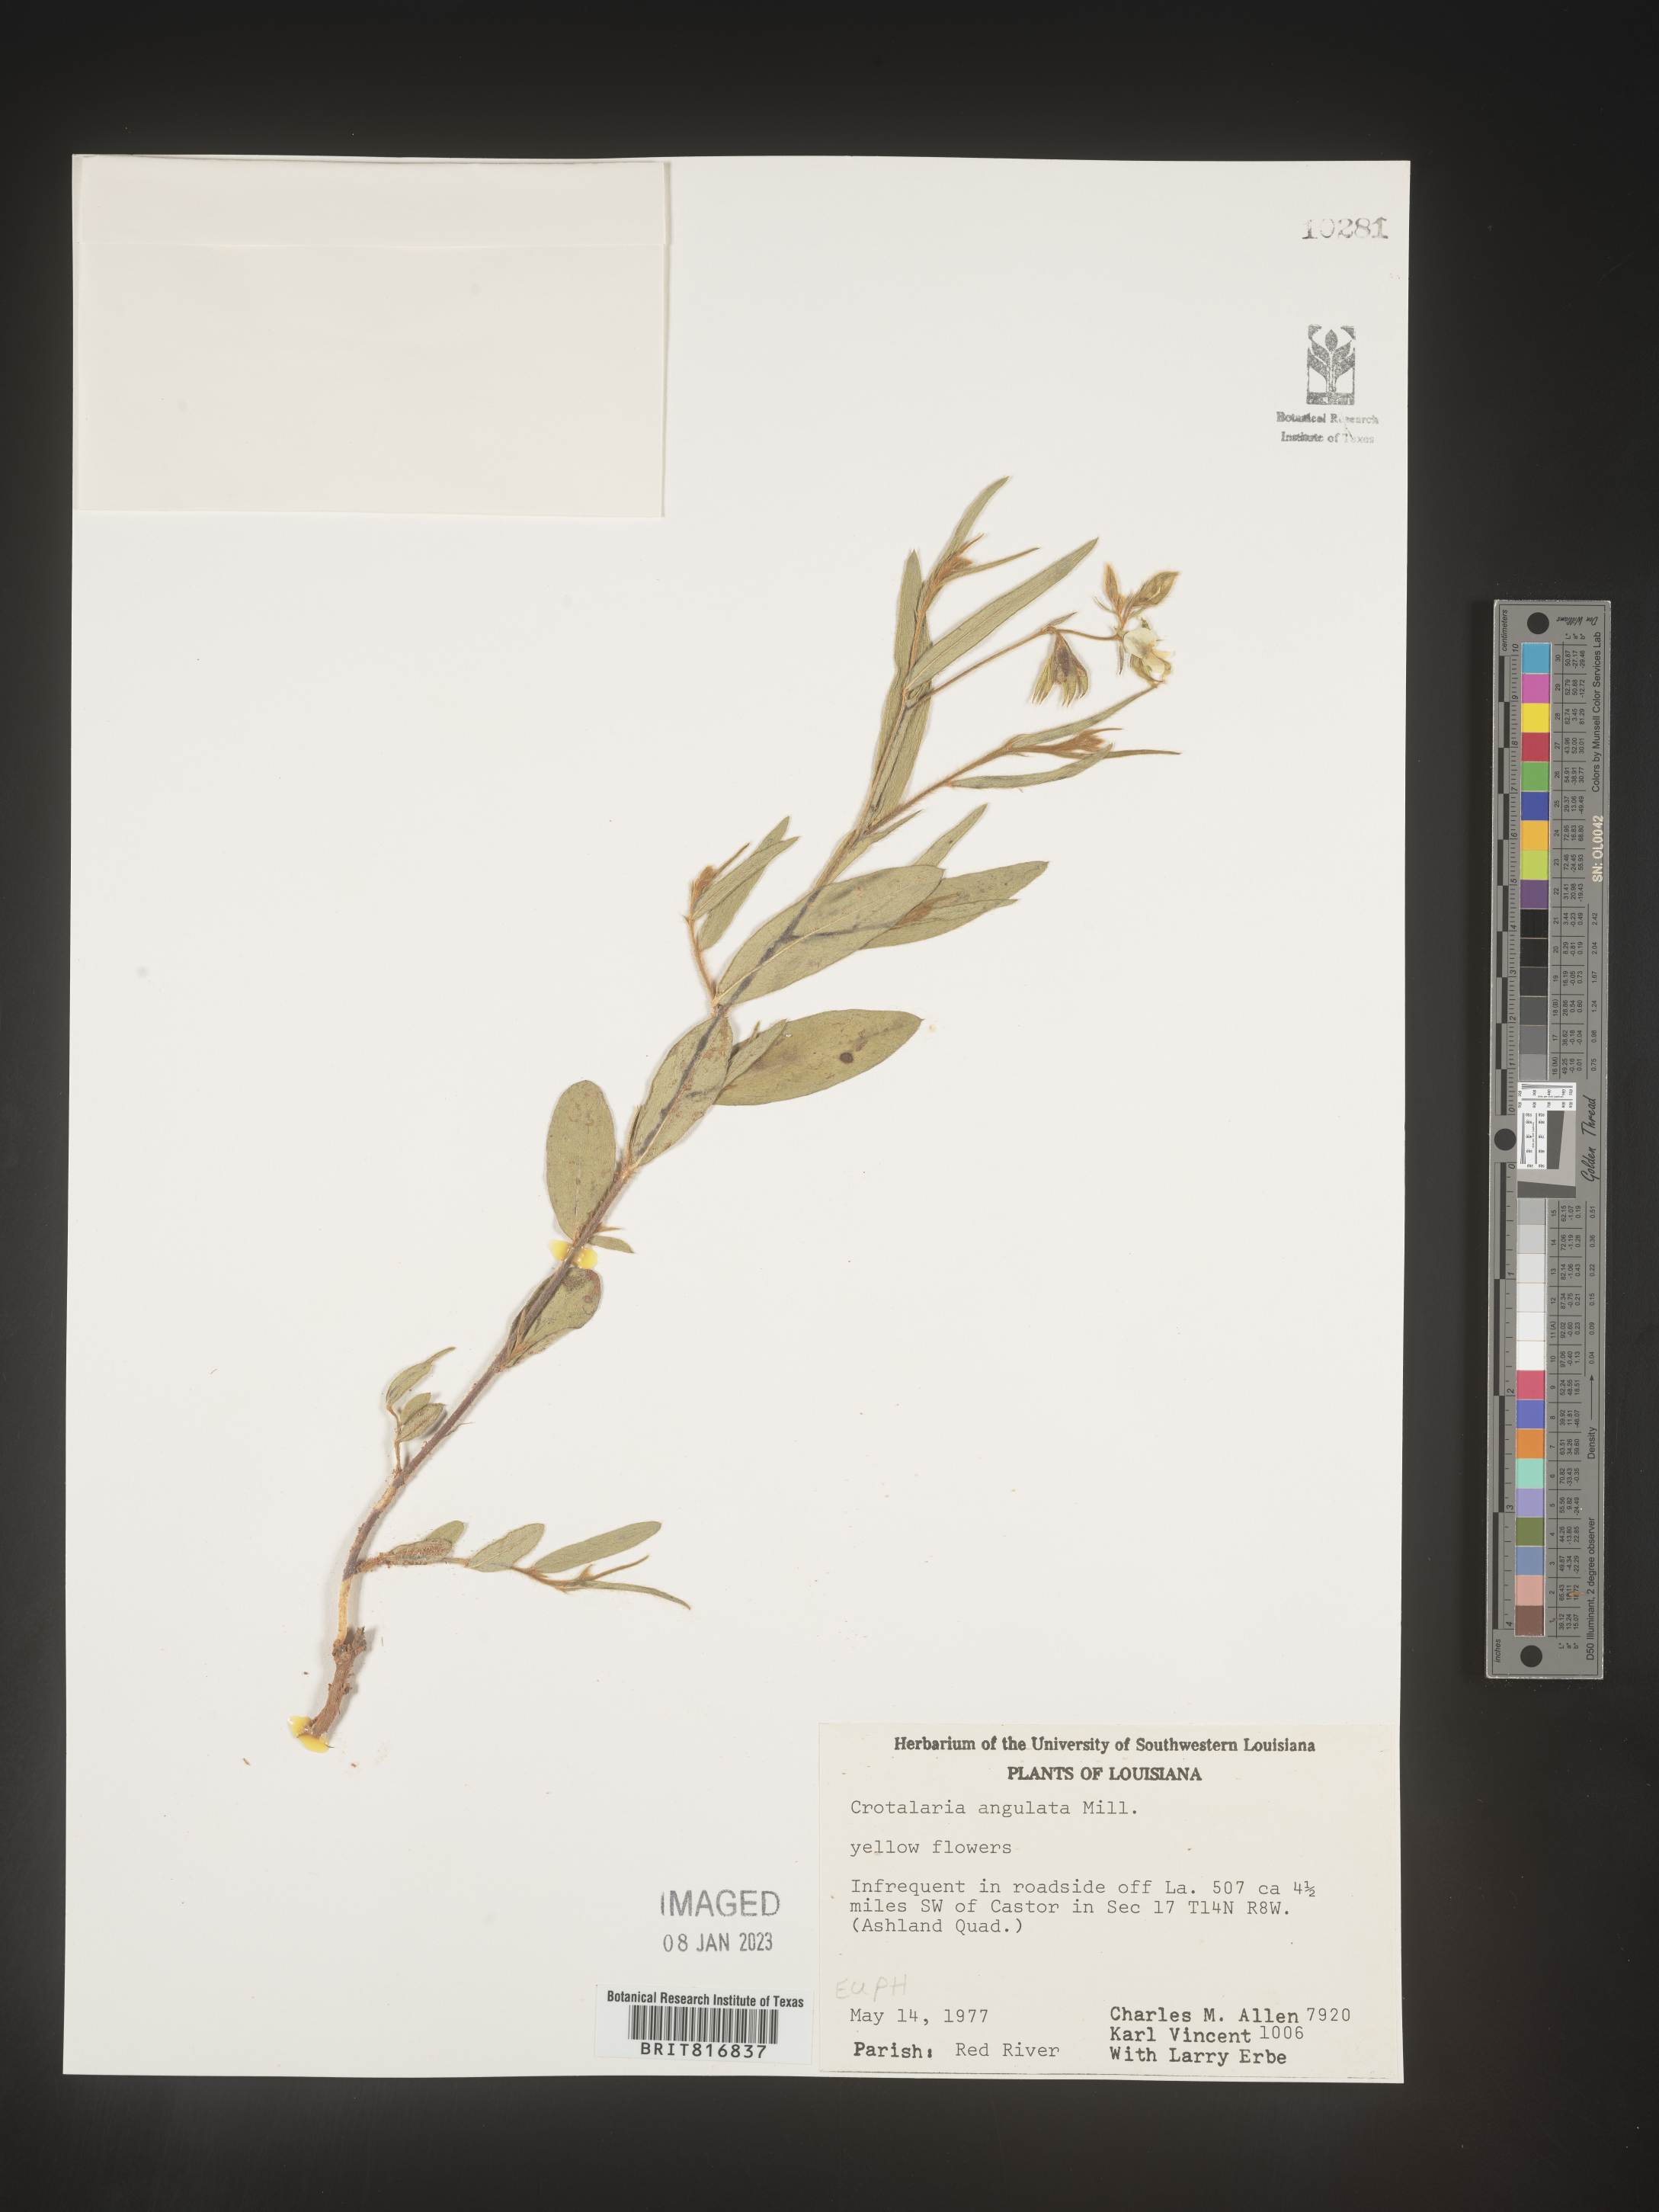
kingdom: Plantae
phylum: Tracheophyta
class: Magnoliopsida
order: Fabales
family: Fabaceae
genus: Crotalaria
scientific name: Crotalaria rotundifolia
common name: Prostrate rattlebox
